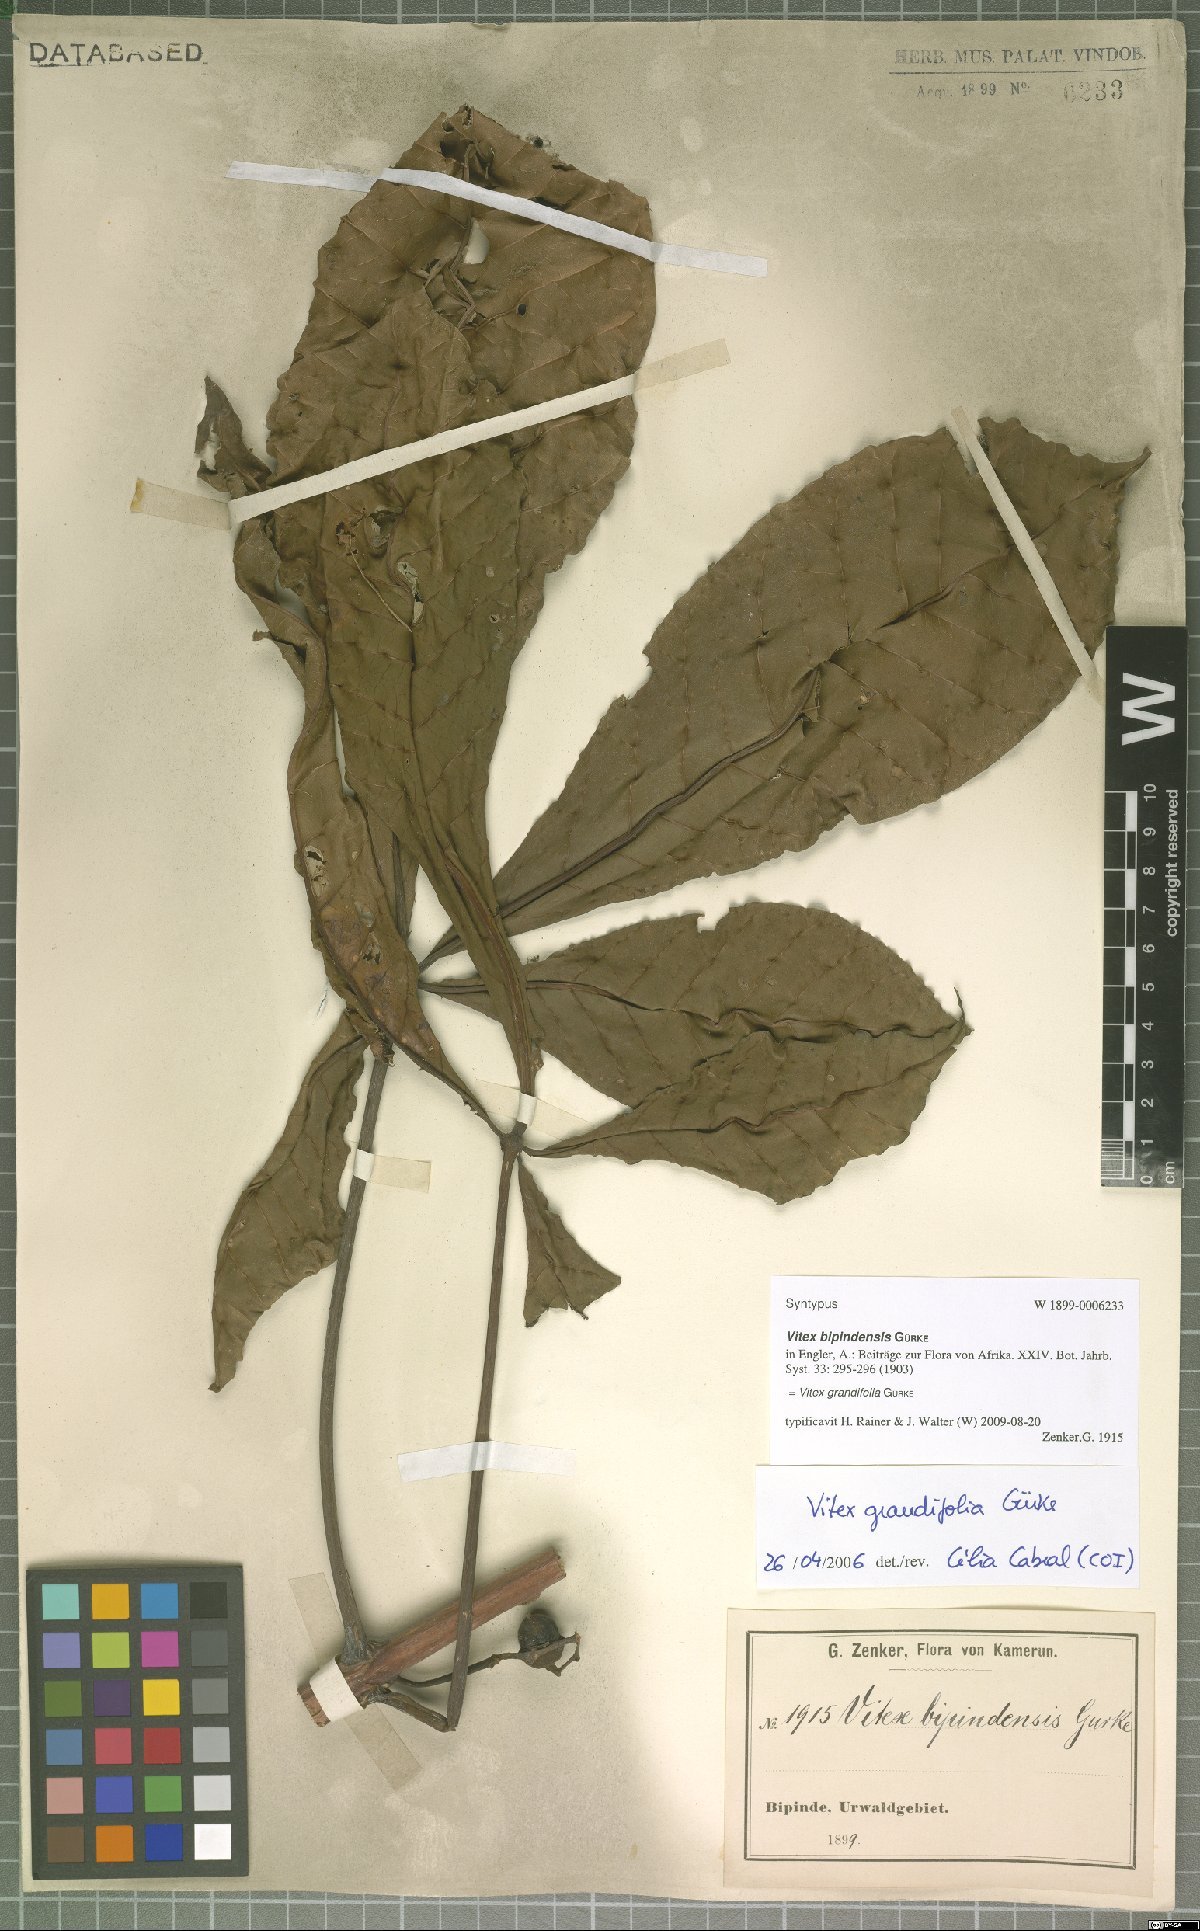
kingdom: Plantae
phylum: Tracheophyta
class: Magnoliopsida
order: Lamiales
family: Lamiaceae
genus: Vitex
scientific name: Vitex grandifolia
